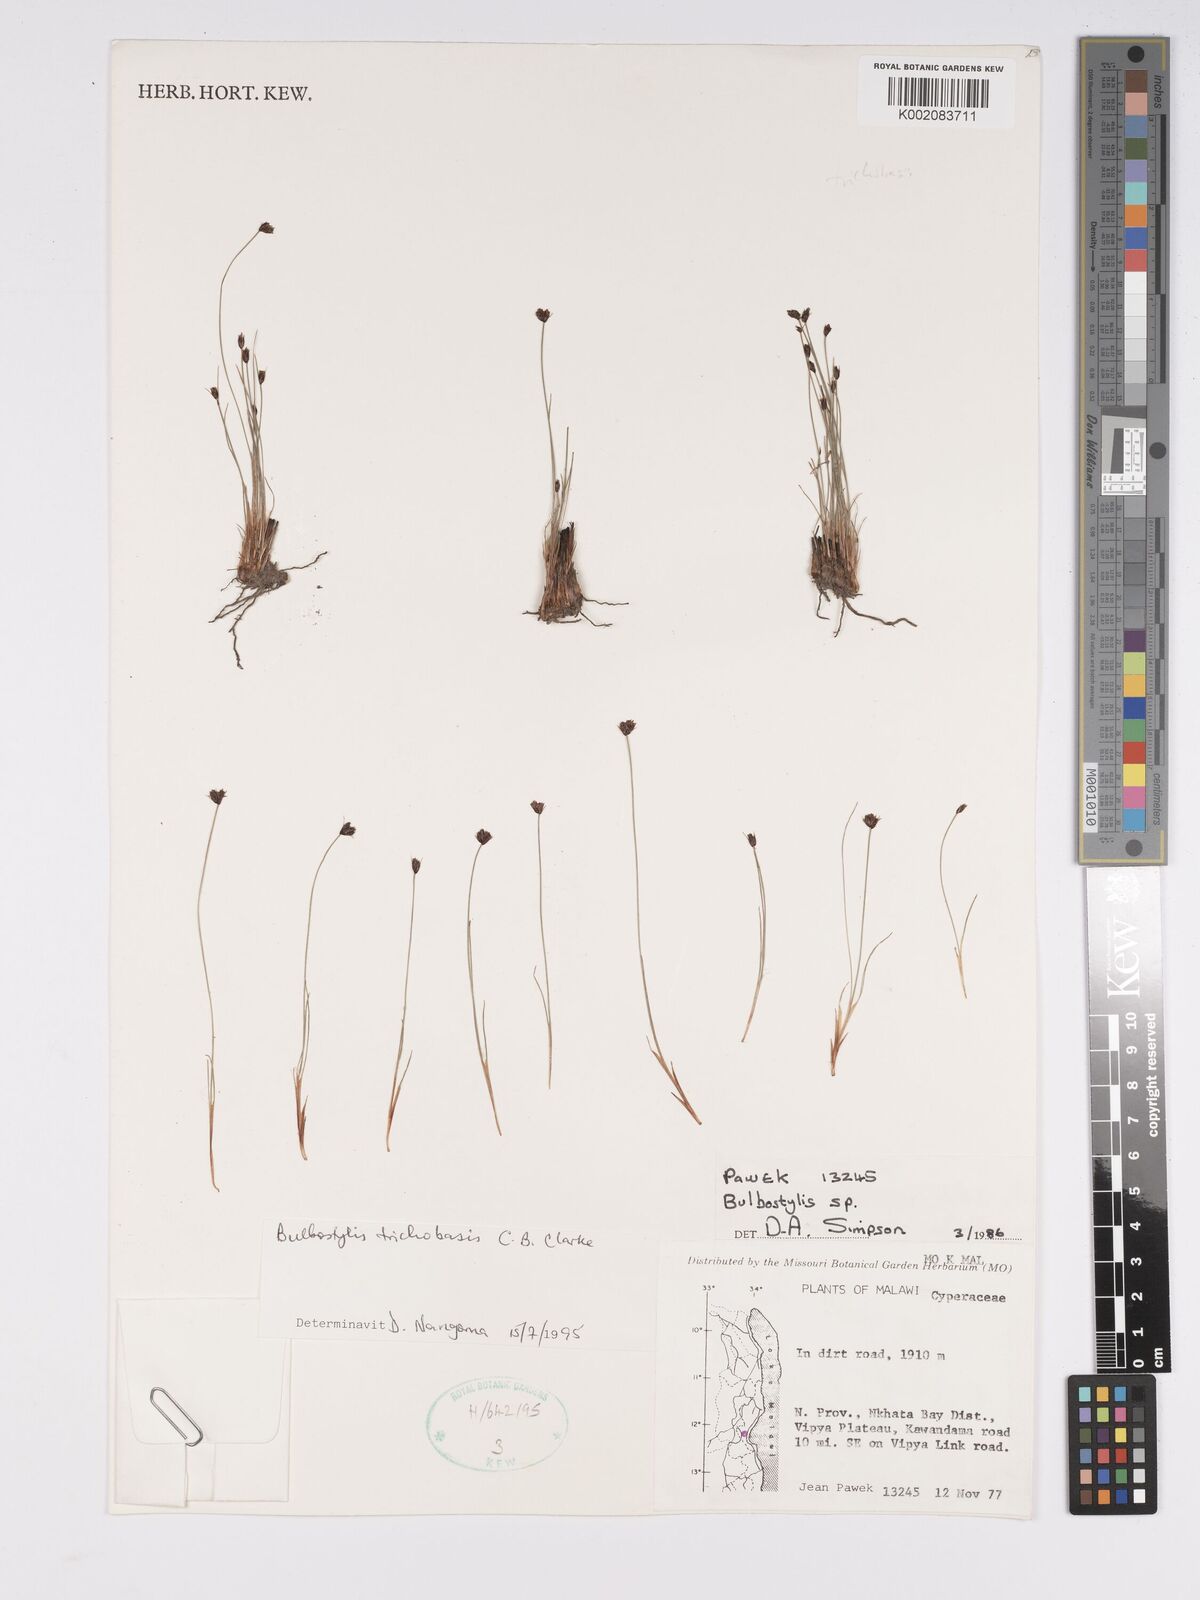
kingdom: Plantae
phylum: Tracheophyta
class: Liliopsida
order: Poales
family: Cyperaceae
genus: Bulbostylis
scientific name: Bulbostylis trichobasis
